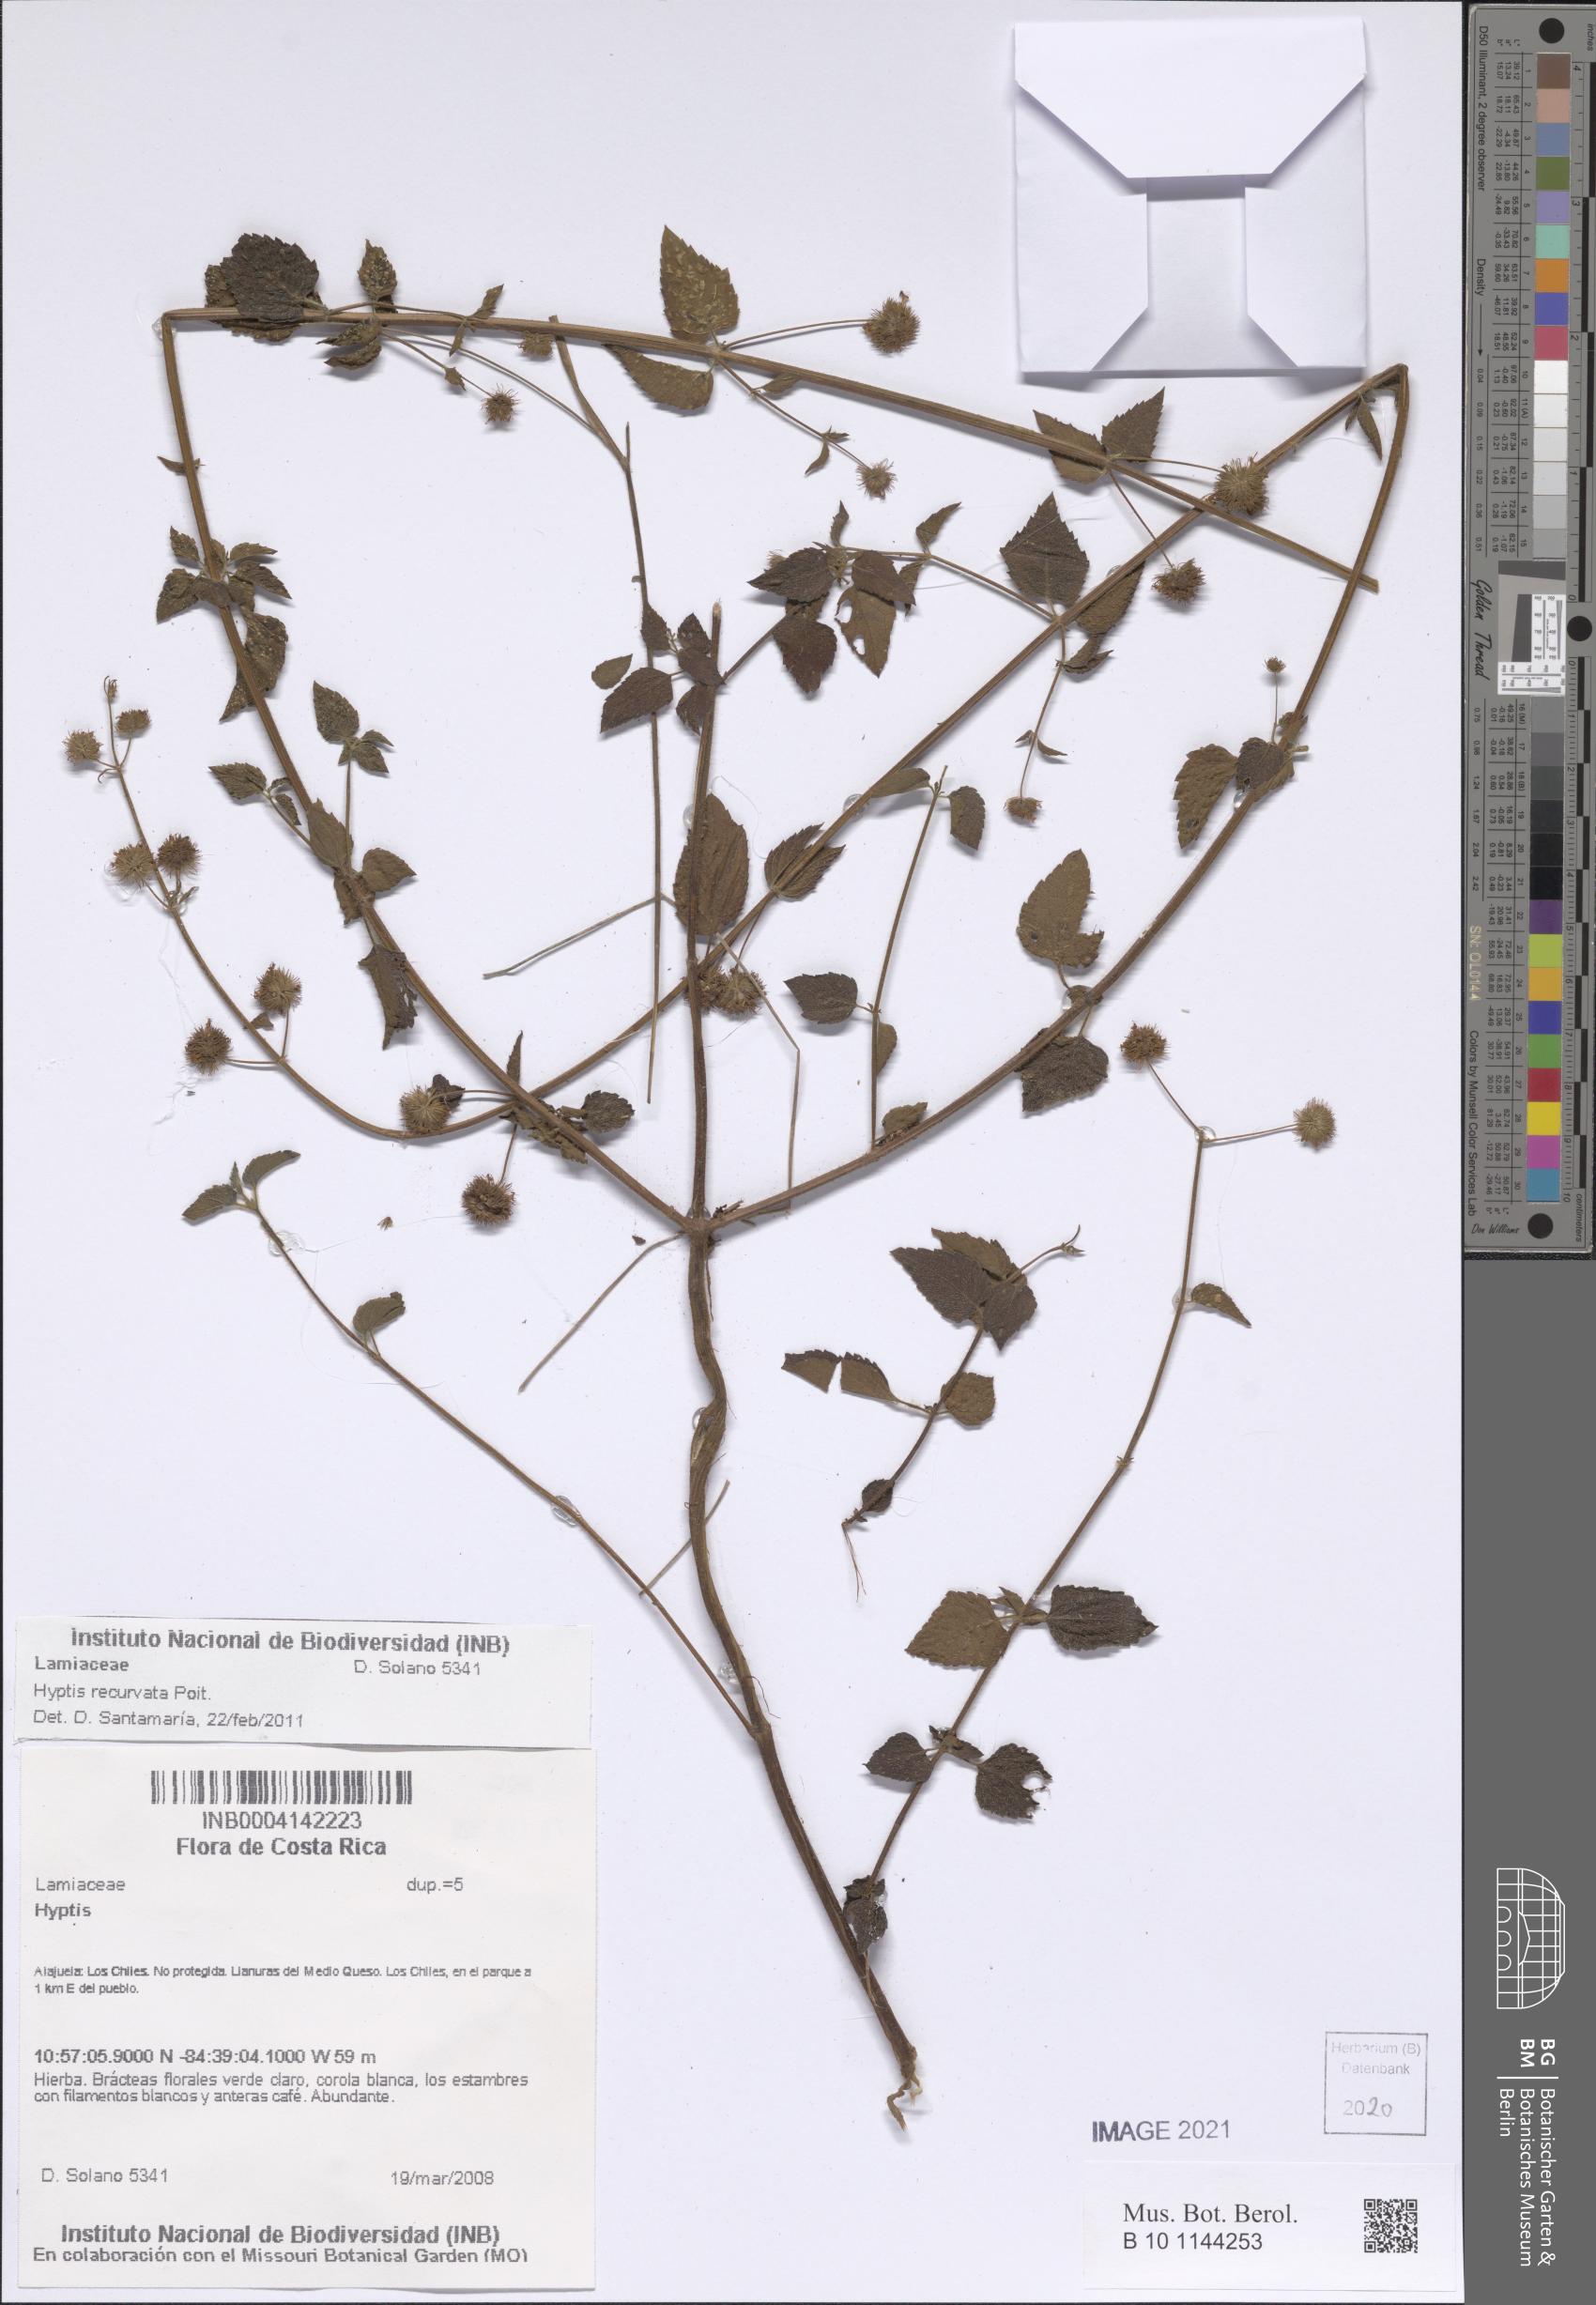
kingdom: Plantae
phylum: Tracheophyta
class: Magnoliopsida
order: Lamiales
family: Lamiaceae
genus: Hyptis
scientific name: Hyptis recurvata
